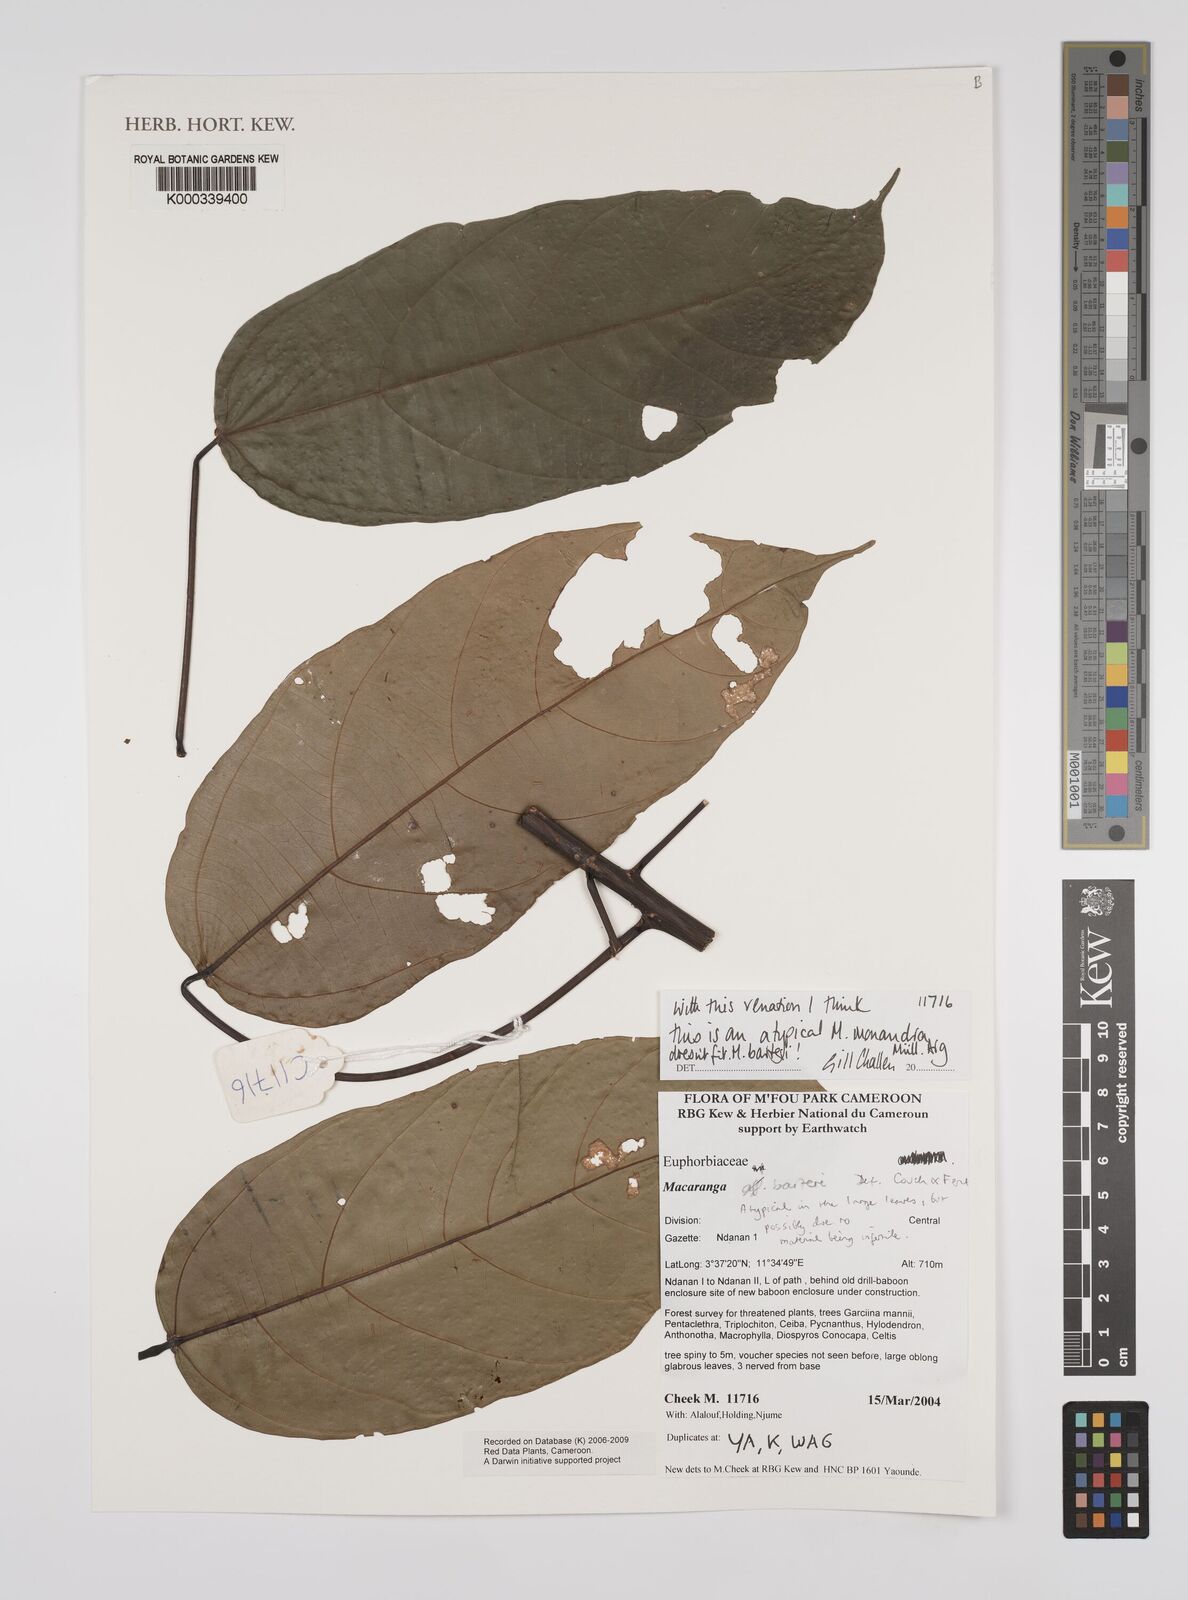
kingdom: Plantae
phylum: Tracheophyta
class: Magnoliopsida
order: Malpighiales
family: Euphorbiaceae
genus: Macaranga
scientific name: Macaranga
